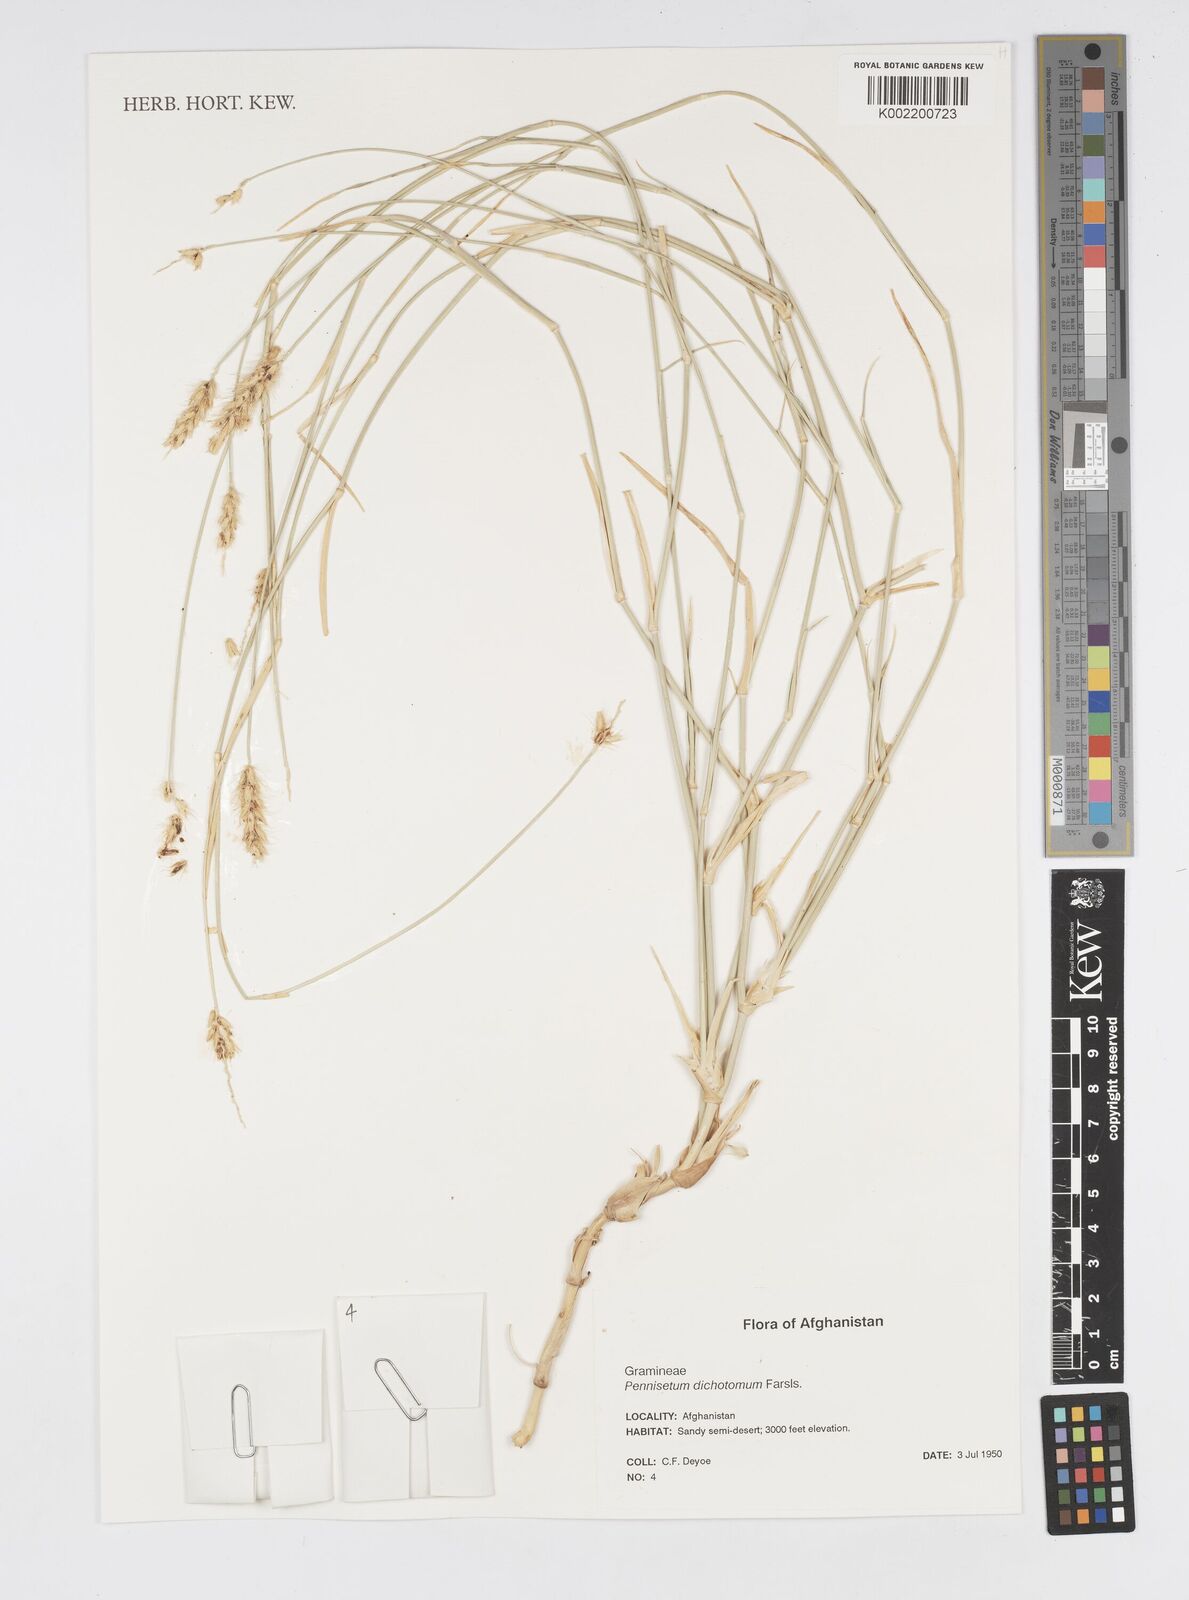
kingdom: Plantae
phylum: Tracheophyta
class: Liliopsida
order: Poales
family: Poaceae
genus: Cenchrus
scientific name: Cenchrus divisus
